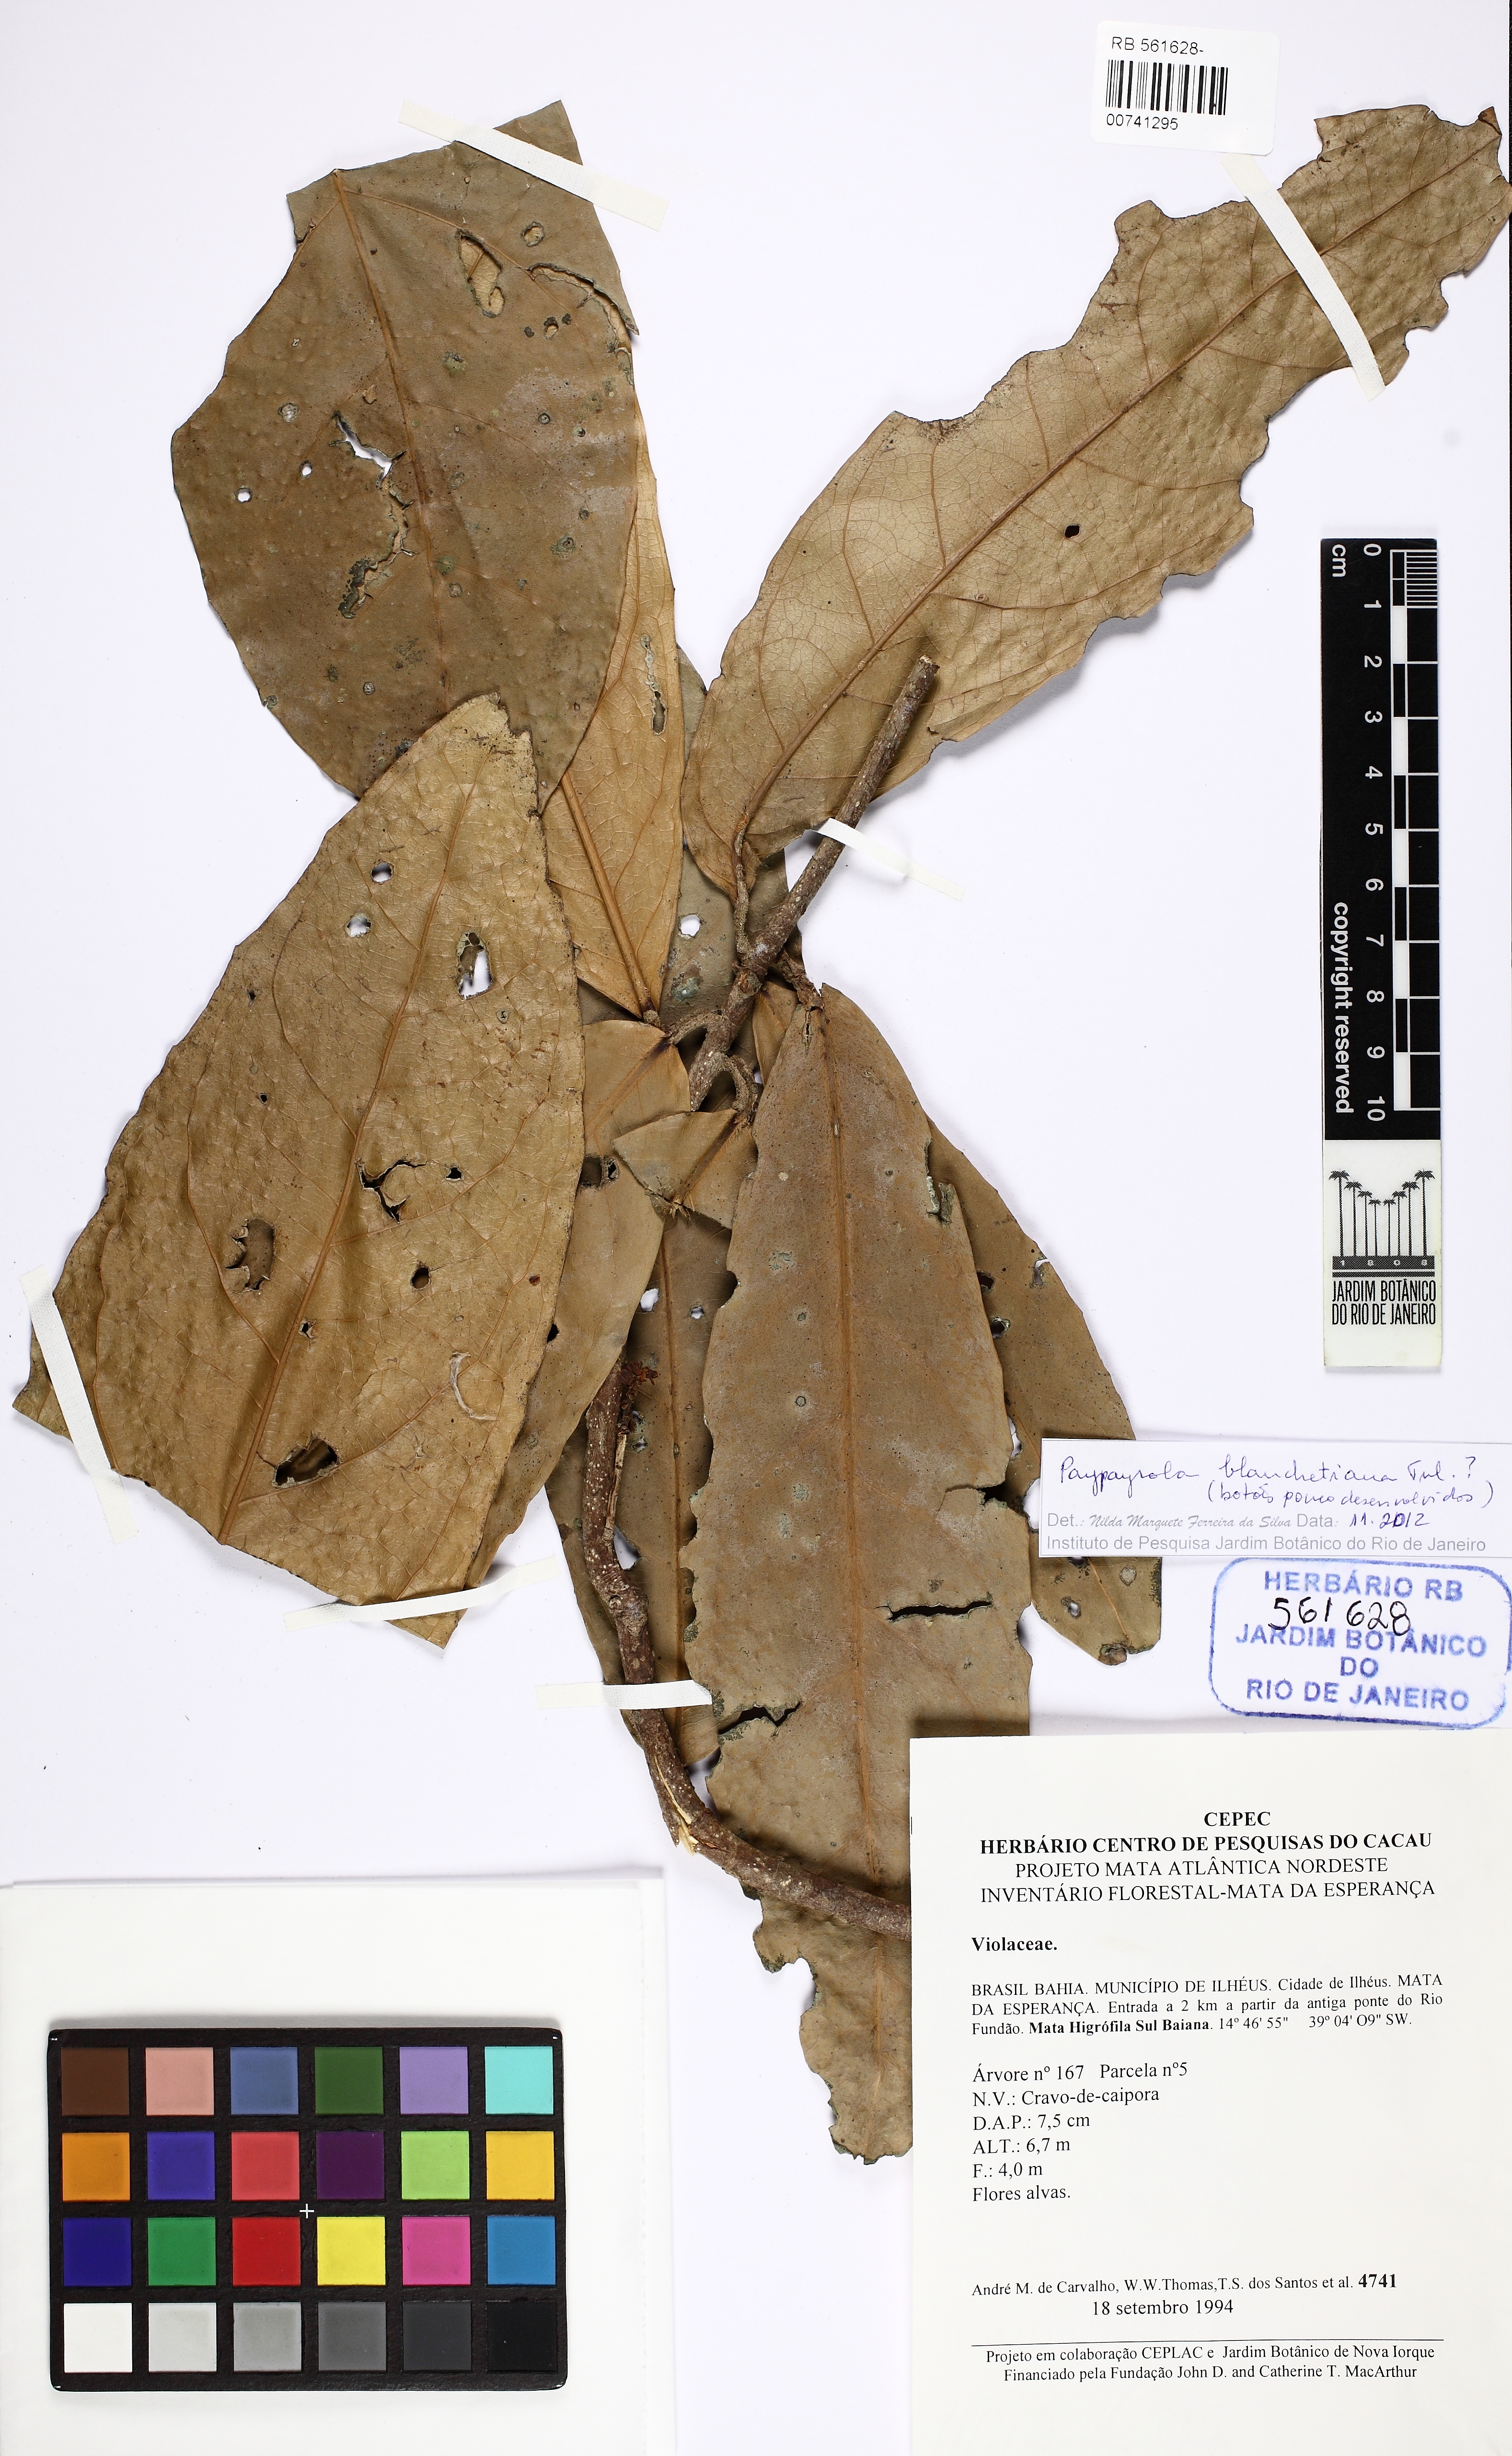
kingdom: Plantae
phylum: Tracheophyta
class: Magnoliopsida
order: Malpighiales
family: Violaceae
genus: Paypayrola
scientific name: Paypayrola blanchetiana
